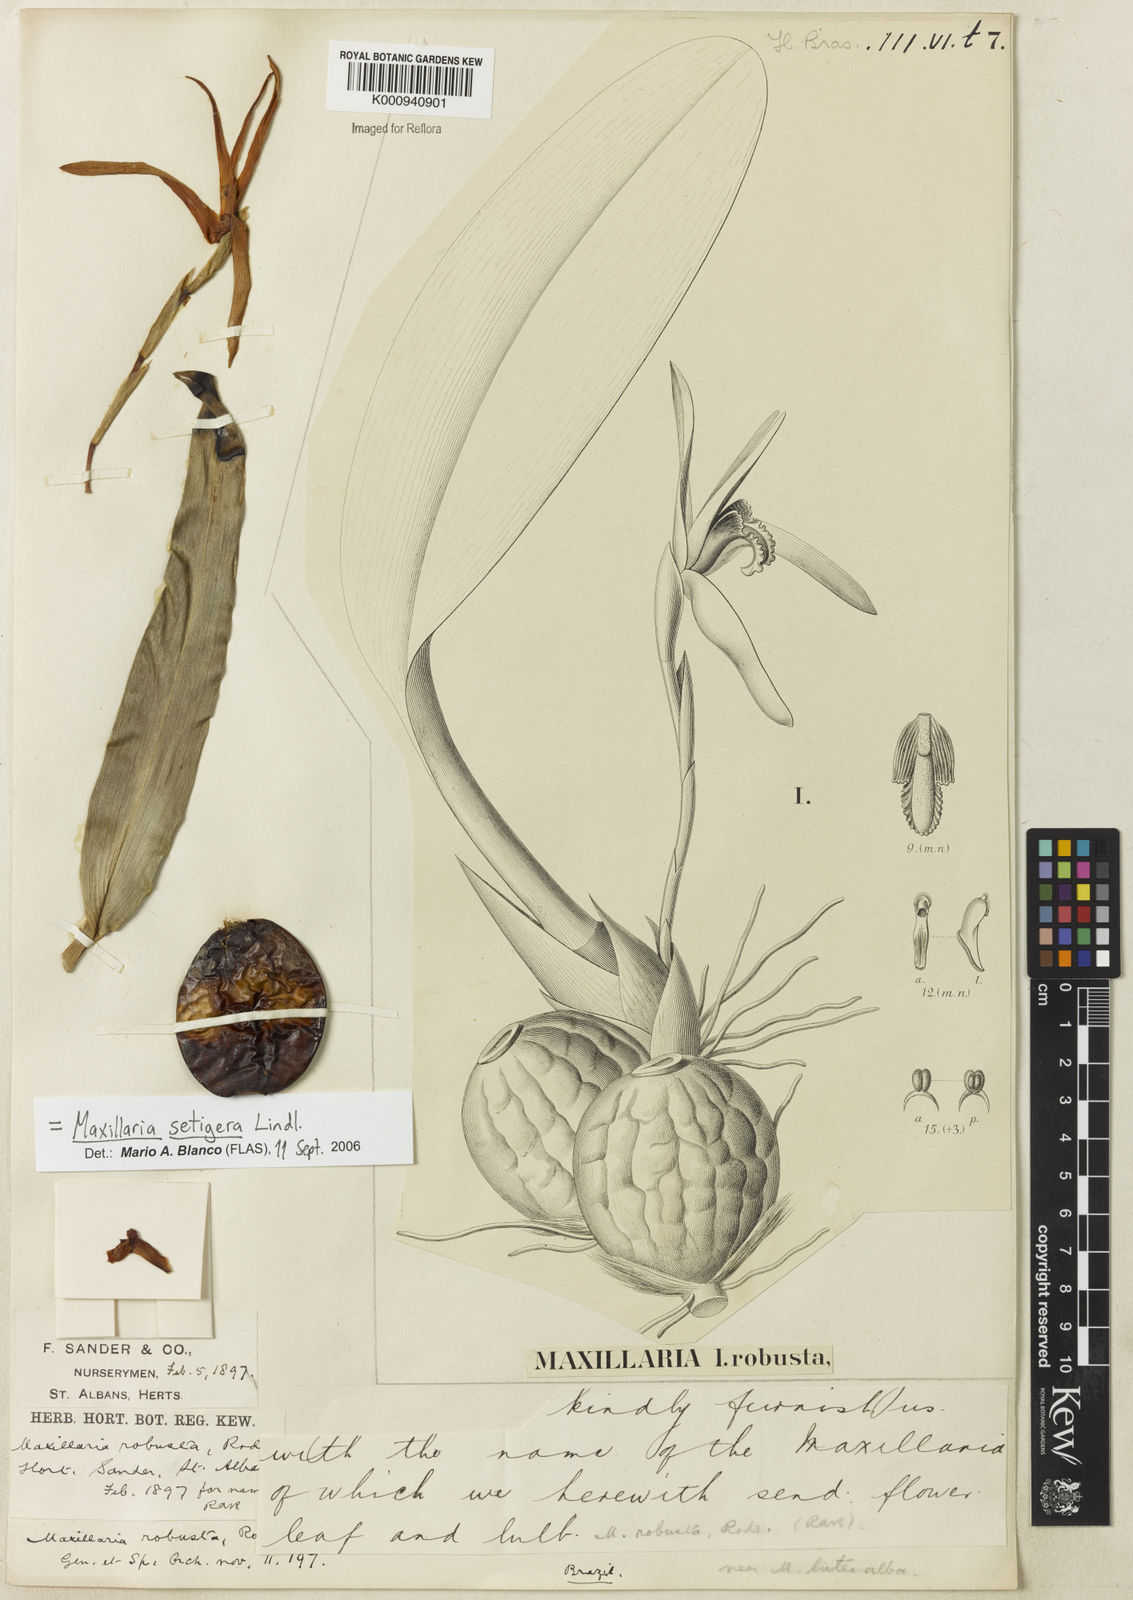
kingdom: Plantae
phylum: Tracheophyta
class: Liliopsida
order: Asparagales
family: Orchidaceae
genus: Maxillaria
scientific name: Maxillaria
